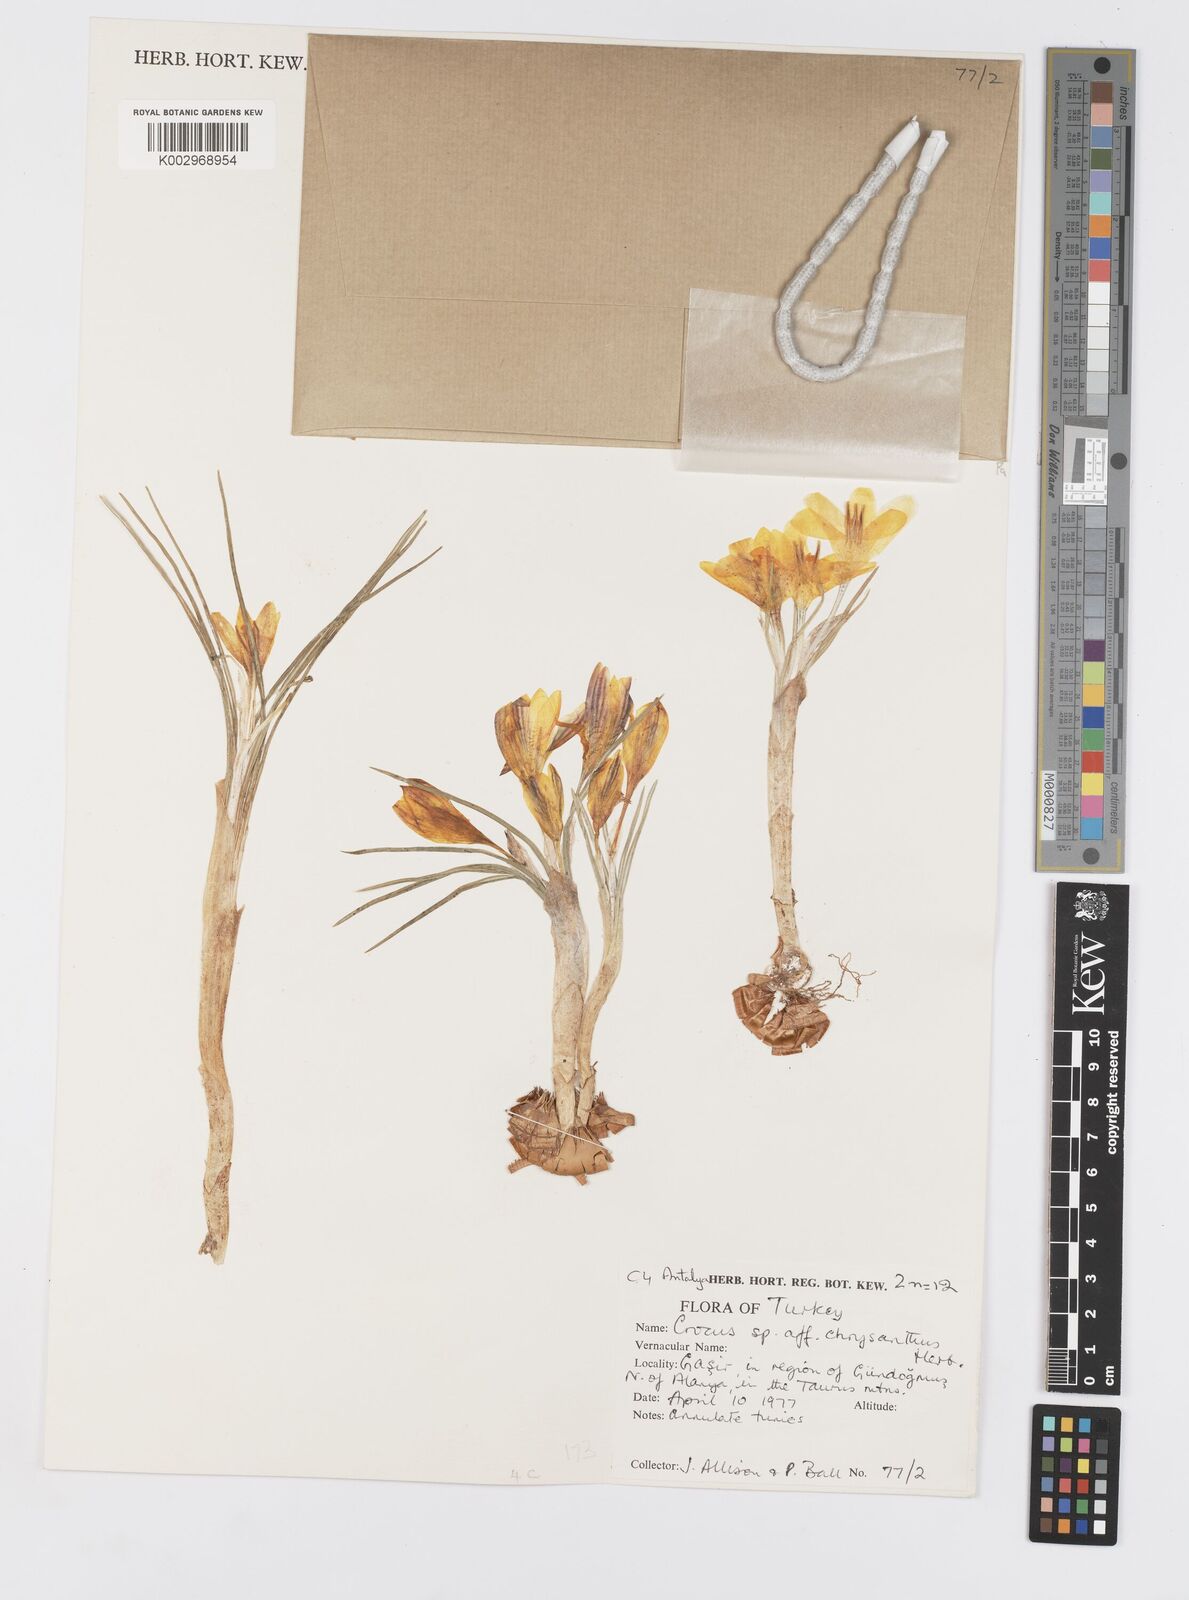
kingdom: Plantae
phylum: Tracheophyta
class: Liliopsida
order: Asparagales
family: Iridaceae
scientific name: Iridaceae
